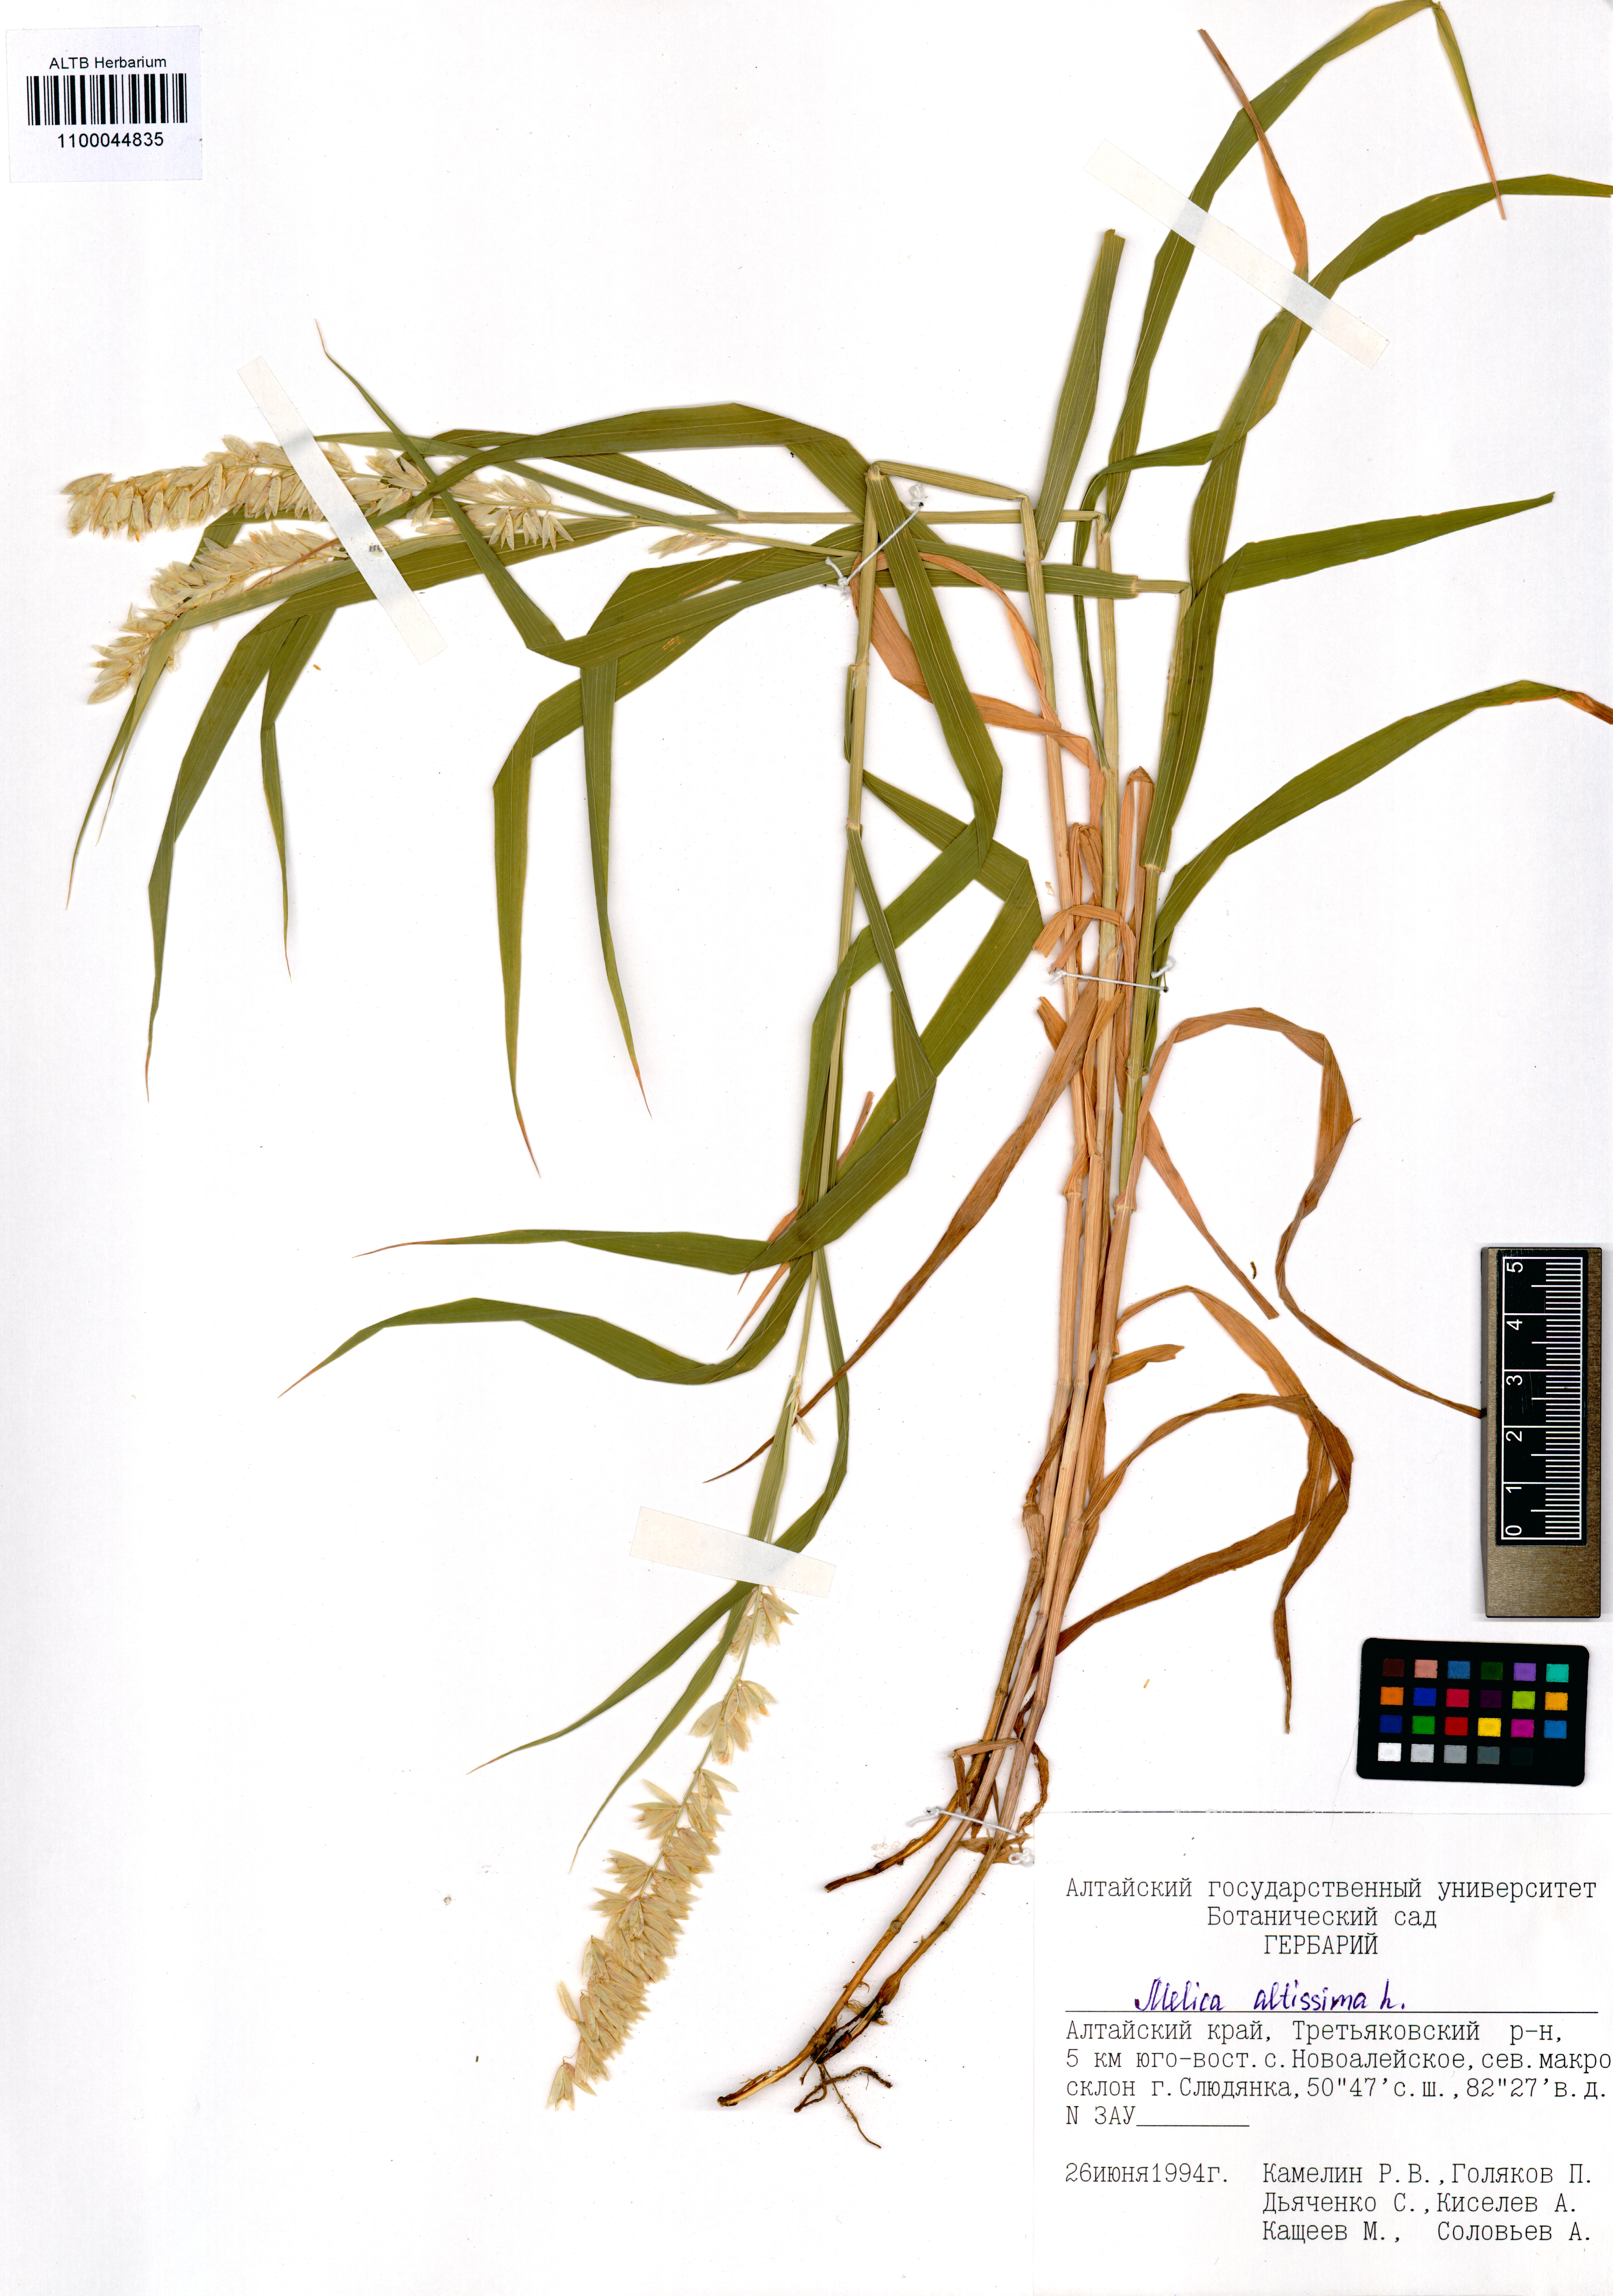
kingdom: Plantae
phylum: Tracheophyta
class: Liliopsida
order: Poales
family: Poaceae
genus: Melica
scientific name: Melica altissima
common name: Siberian melicgrass
